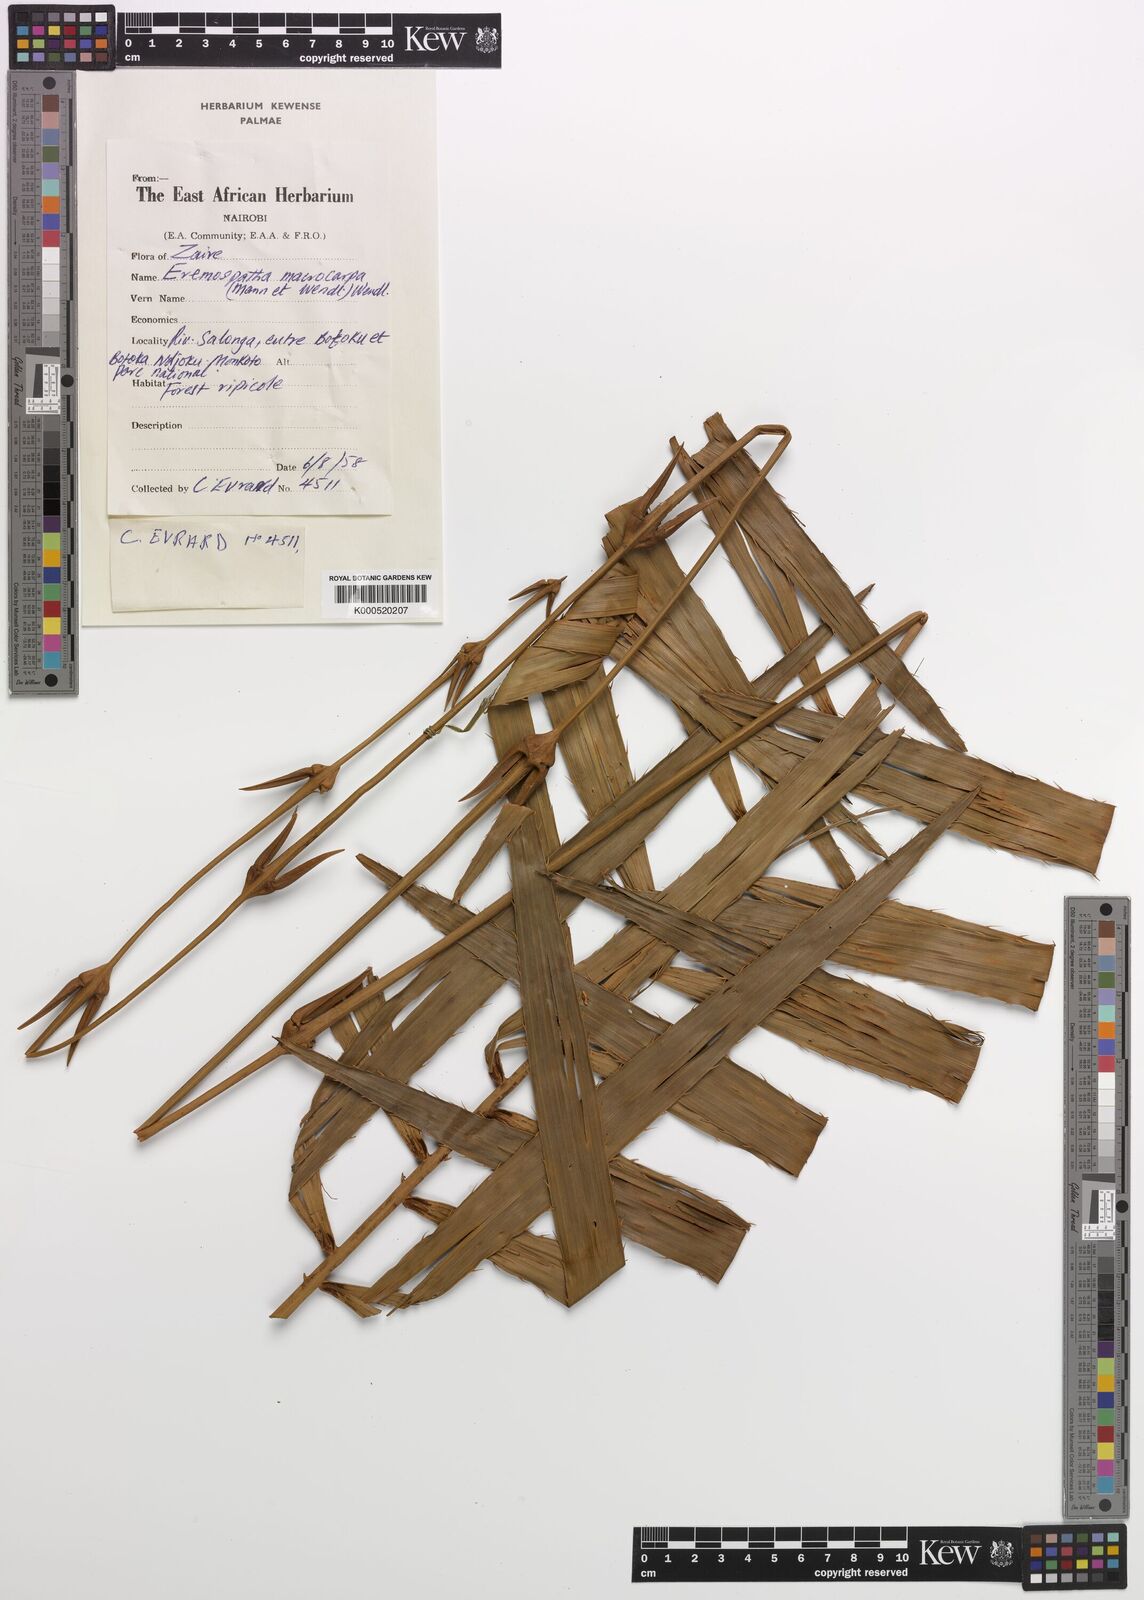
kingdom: Plantae
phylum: Tracheophyta
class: Liliopsida
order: Arecales
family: Arecaceae
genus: Eremospatha
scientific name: Eremospatha
